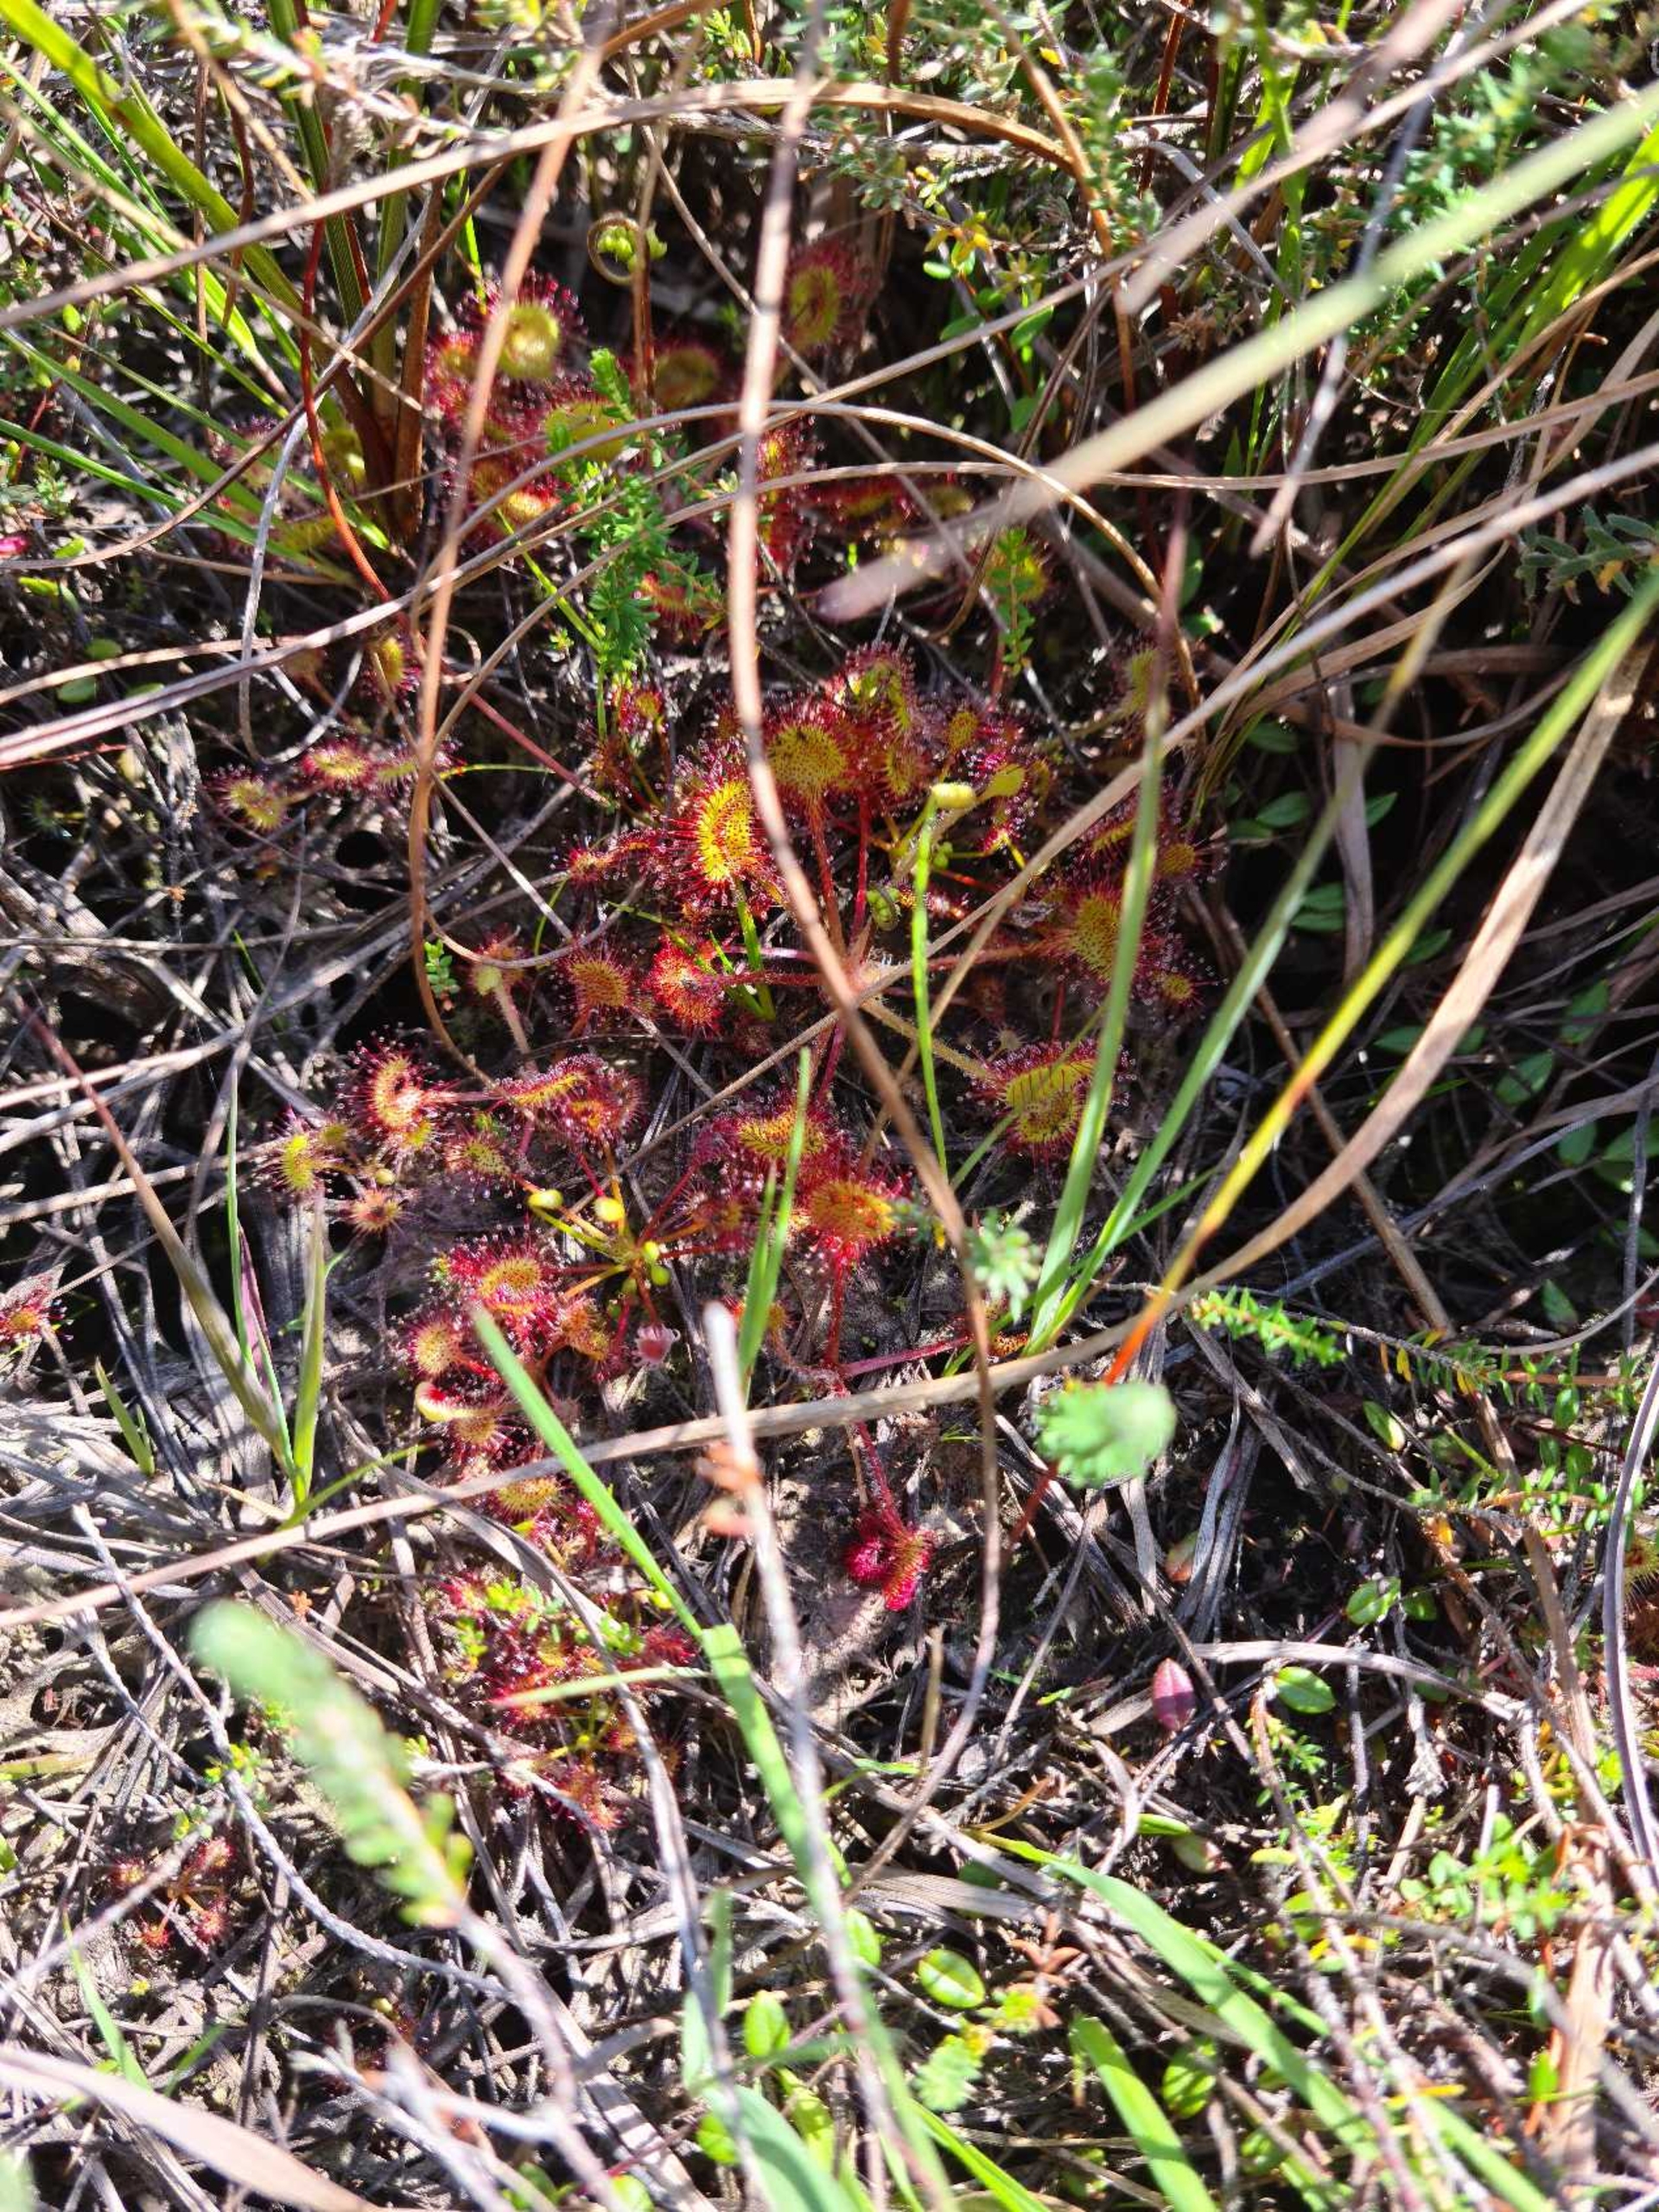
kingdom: Plantae
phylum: Tracheophyta
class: Magnoliopsida
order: Caryophyllales
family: Droseraceae
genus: Drosera
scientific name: Drosera rotundifolia
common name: Rundbladet soldug
